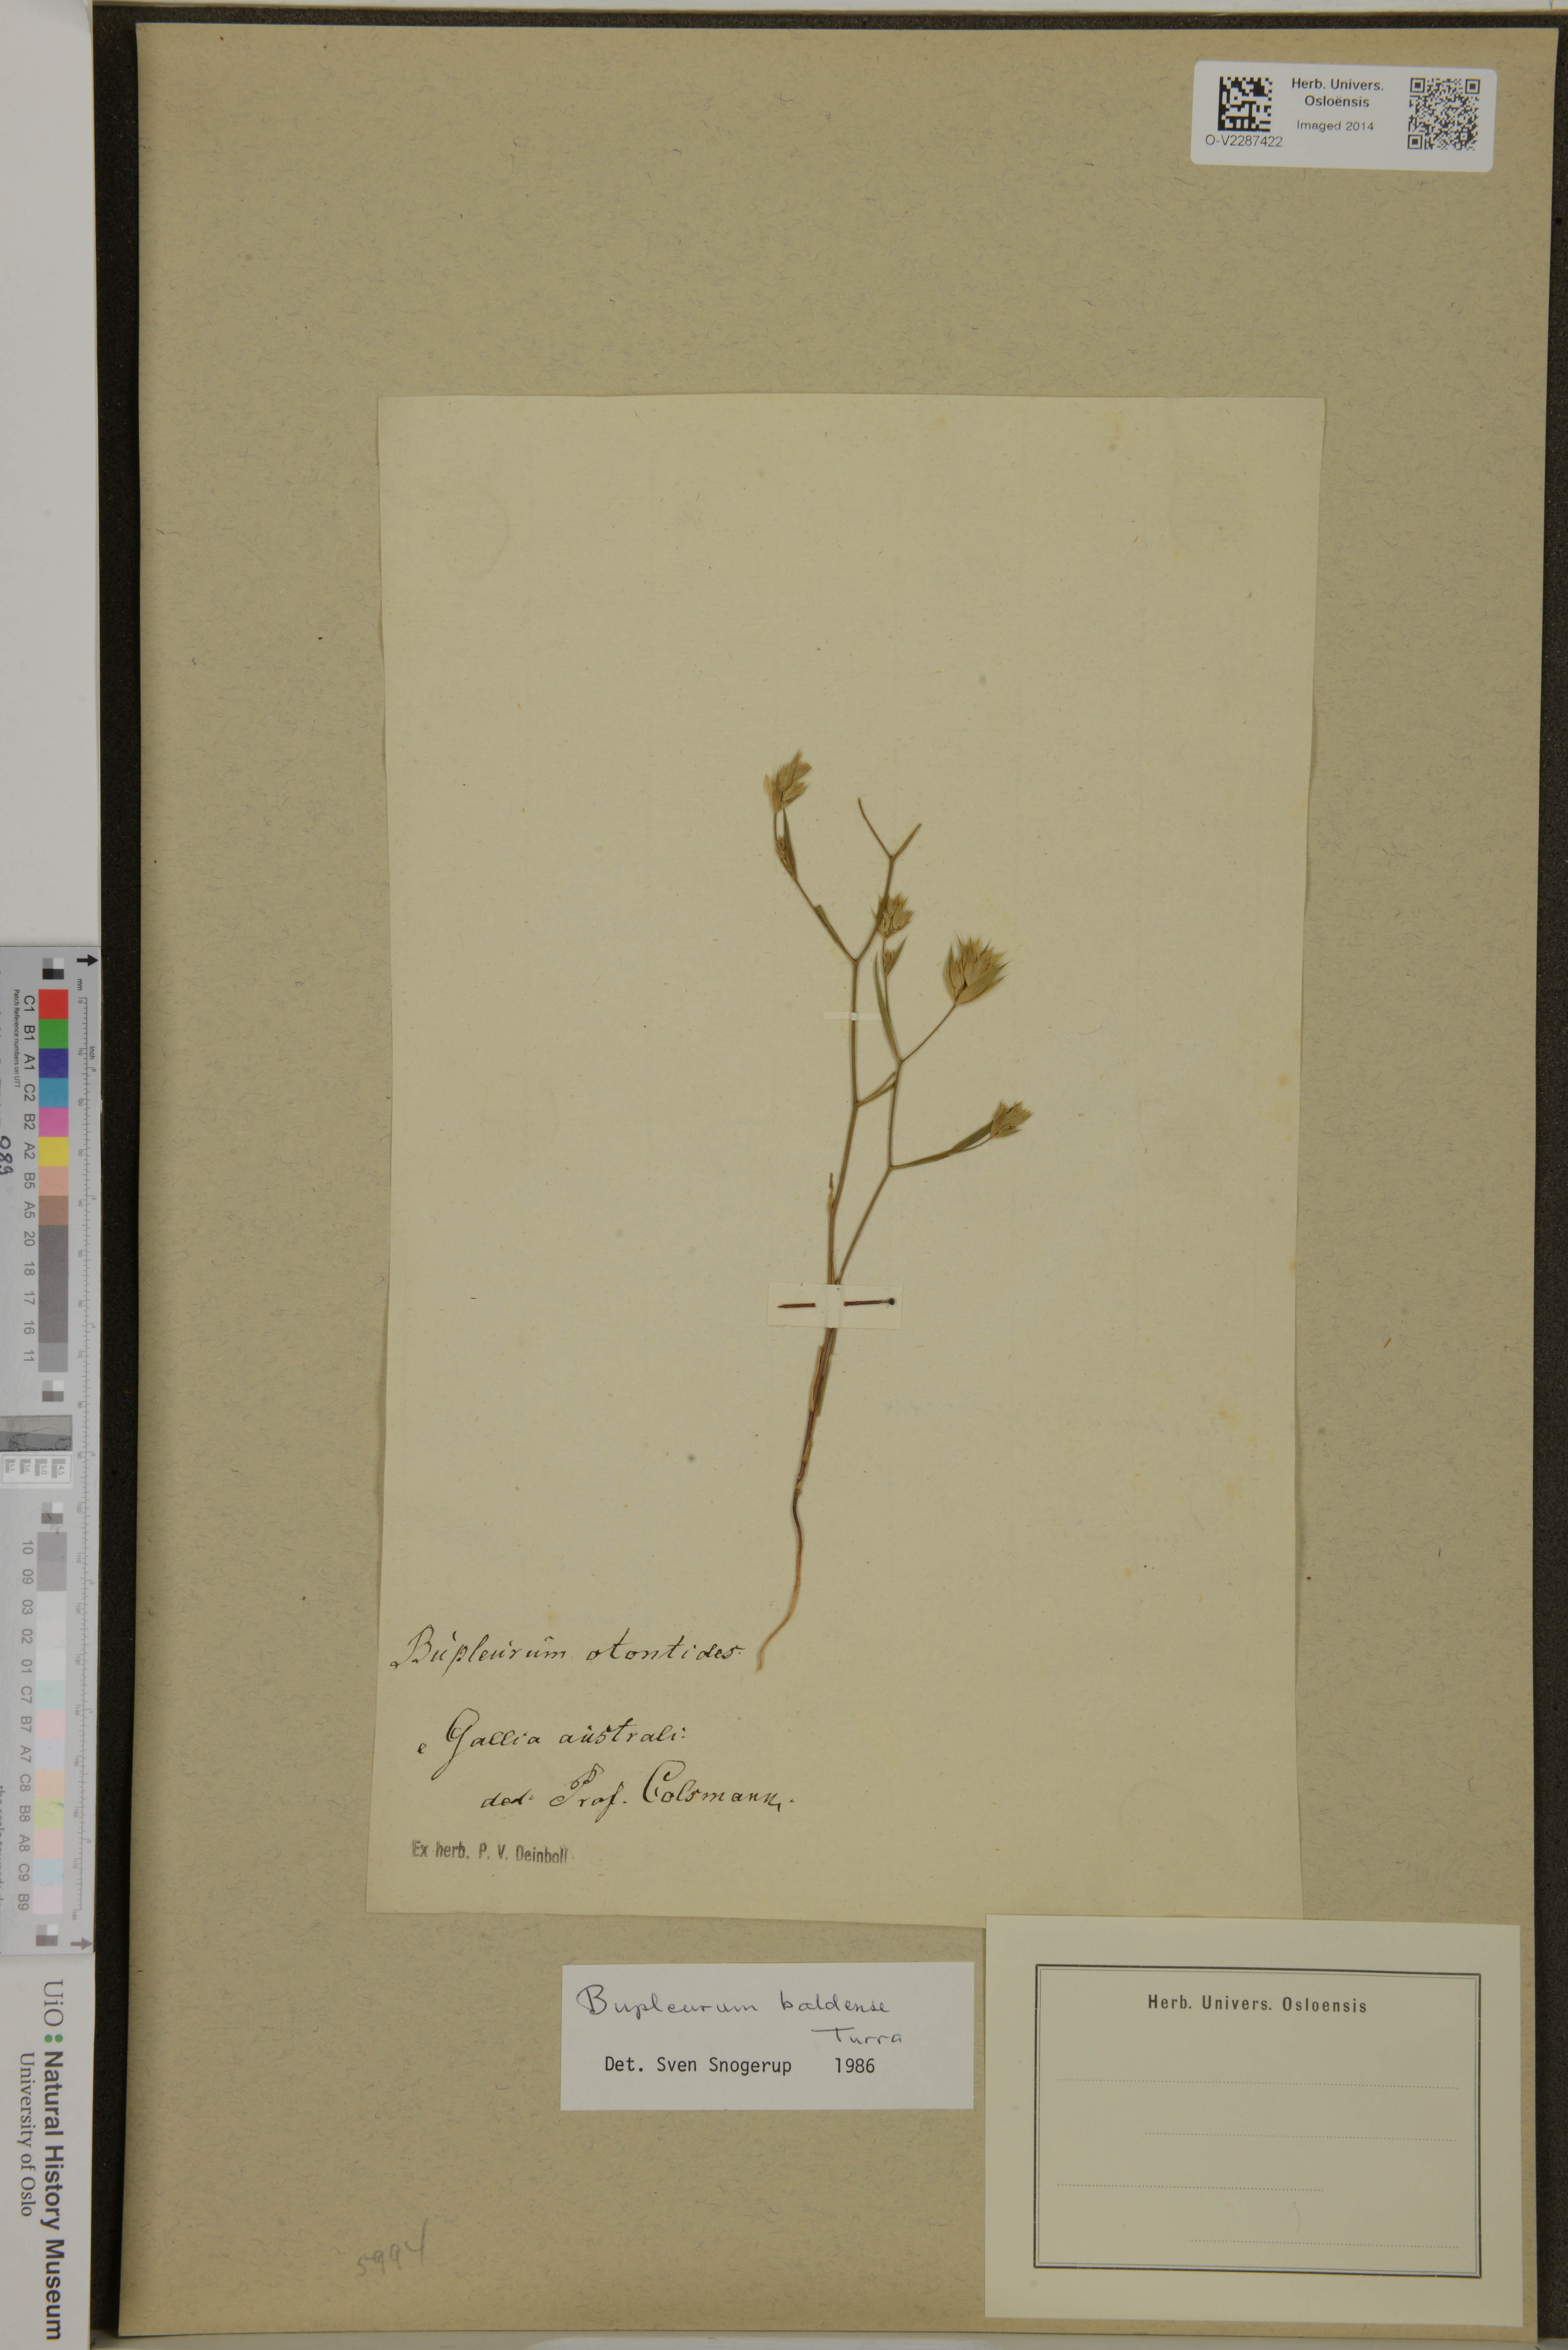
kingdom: Plantae
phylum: Tracheophyta
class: Magnoliopsida
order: Apiales
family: Apiaceae
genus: Bupleurum
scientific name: Bupleurum baldense
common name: Small hare's-ear
